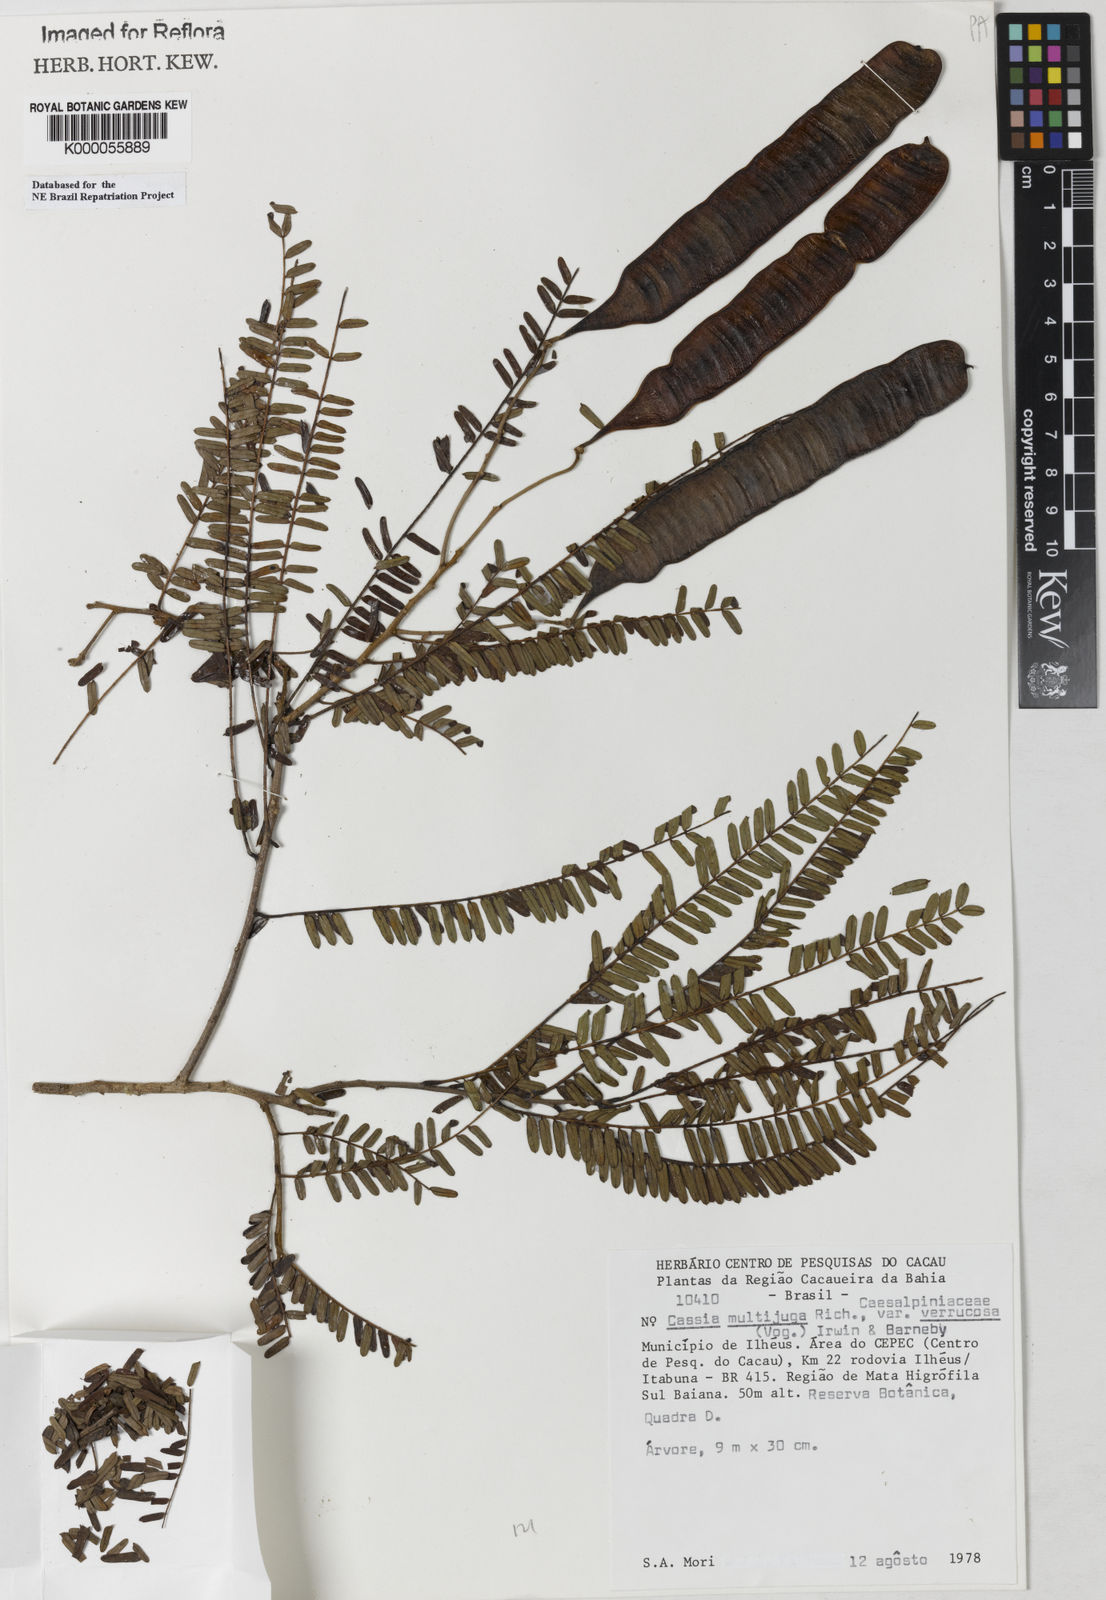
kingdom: Plantae
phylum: Tracheophyta
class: Magnoliopsida
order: Fabales
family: Fabaceae
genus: Senna
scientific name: Senna multijuga
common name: False sicklepod
